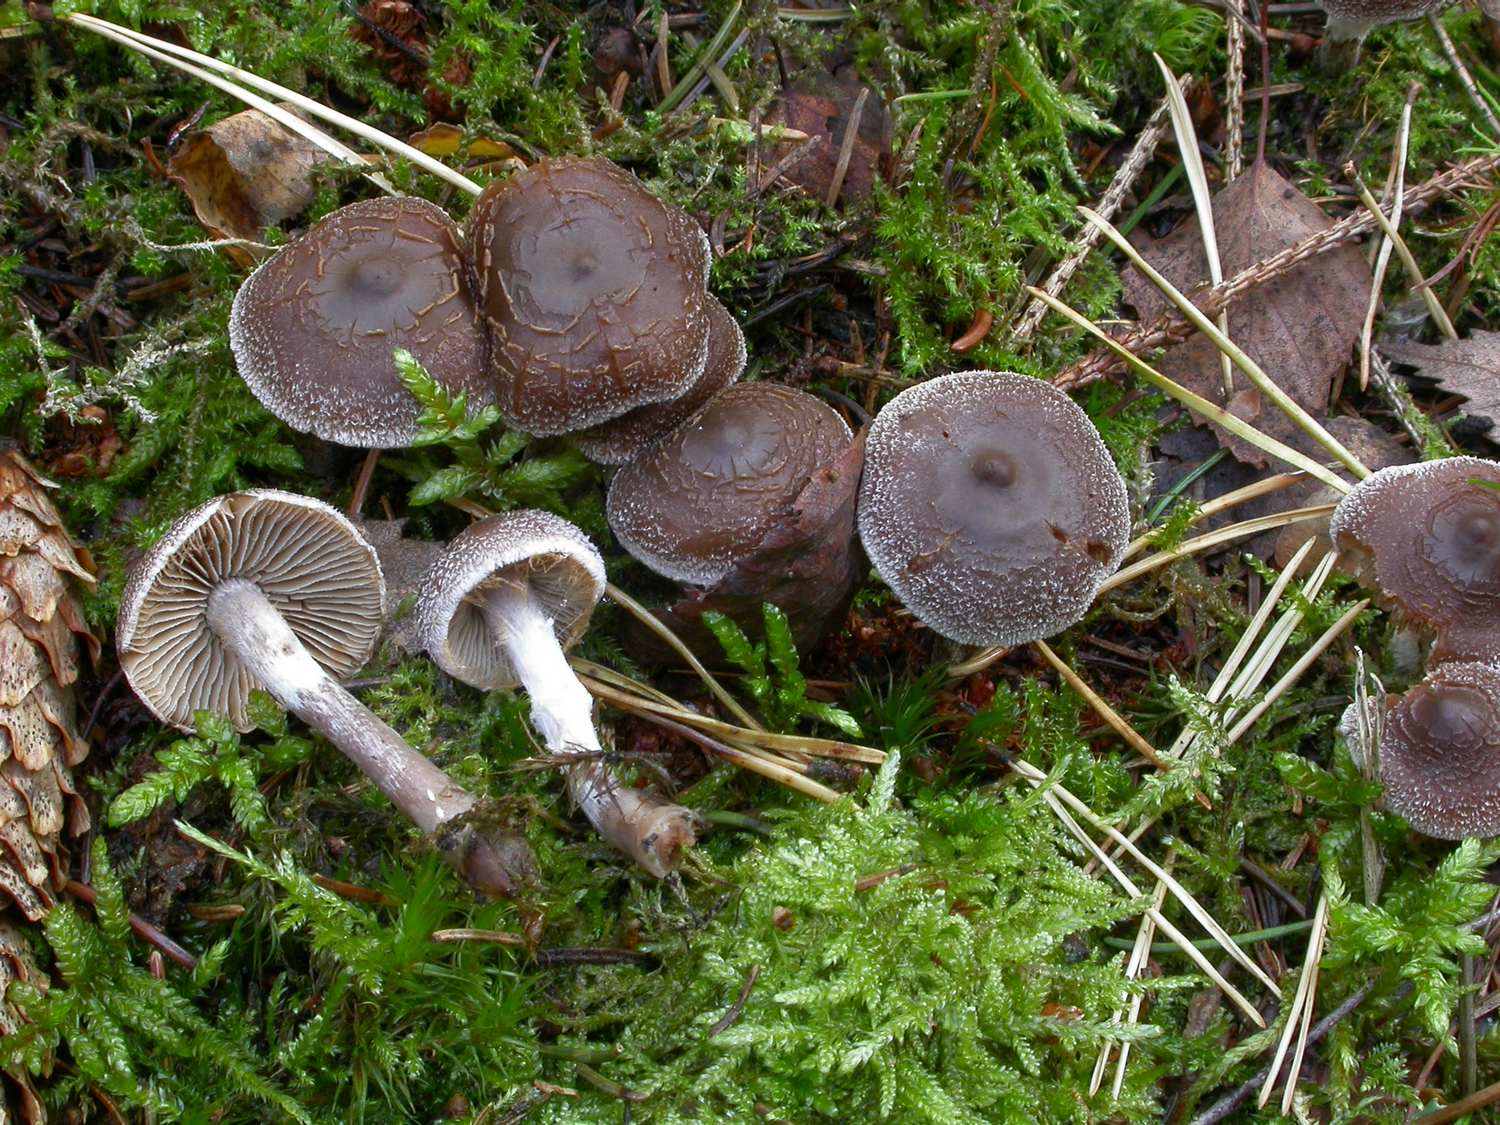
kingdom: Fungi
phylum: Basidiomycota
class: Agaricomycetes
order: Agaricales
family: Cortinariaceae
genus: Cortinarius
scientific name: Cortinarius
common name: pelargonie-slørhat
